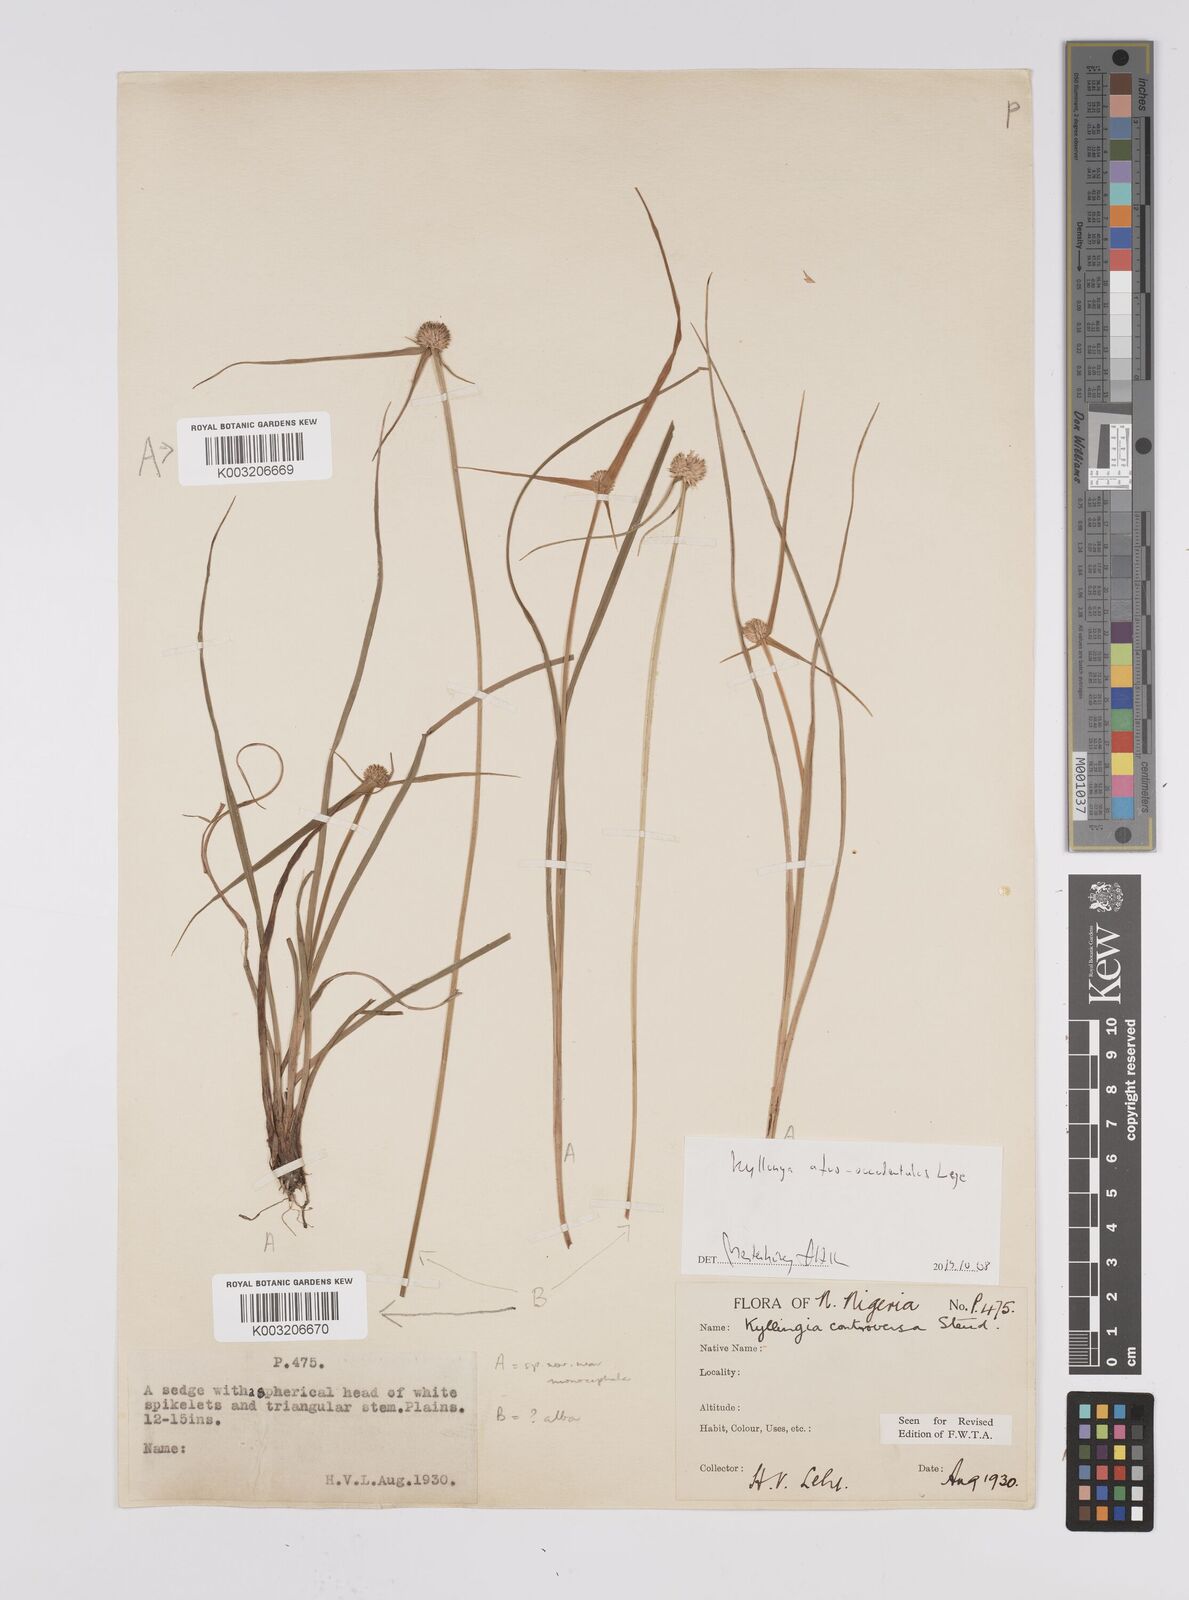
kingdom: Plantae
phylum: Tracheophyta
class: Liliopsida
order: Poales
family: Cyperaceae
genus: Cyperus
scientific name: Cyperus afro-occidentalis
